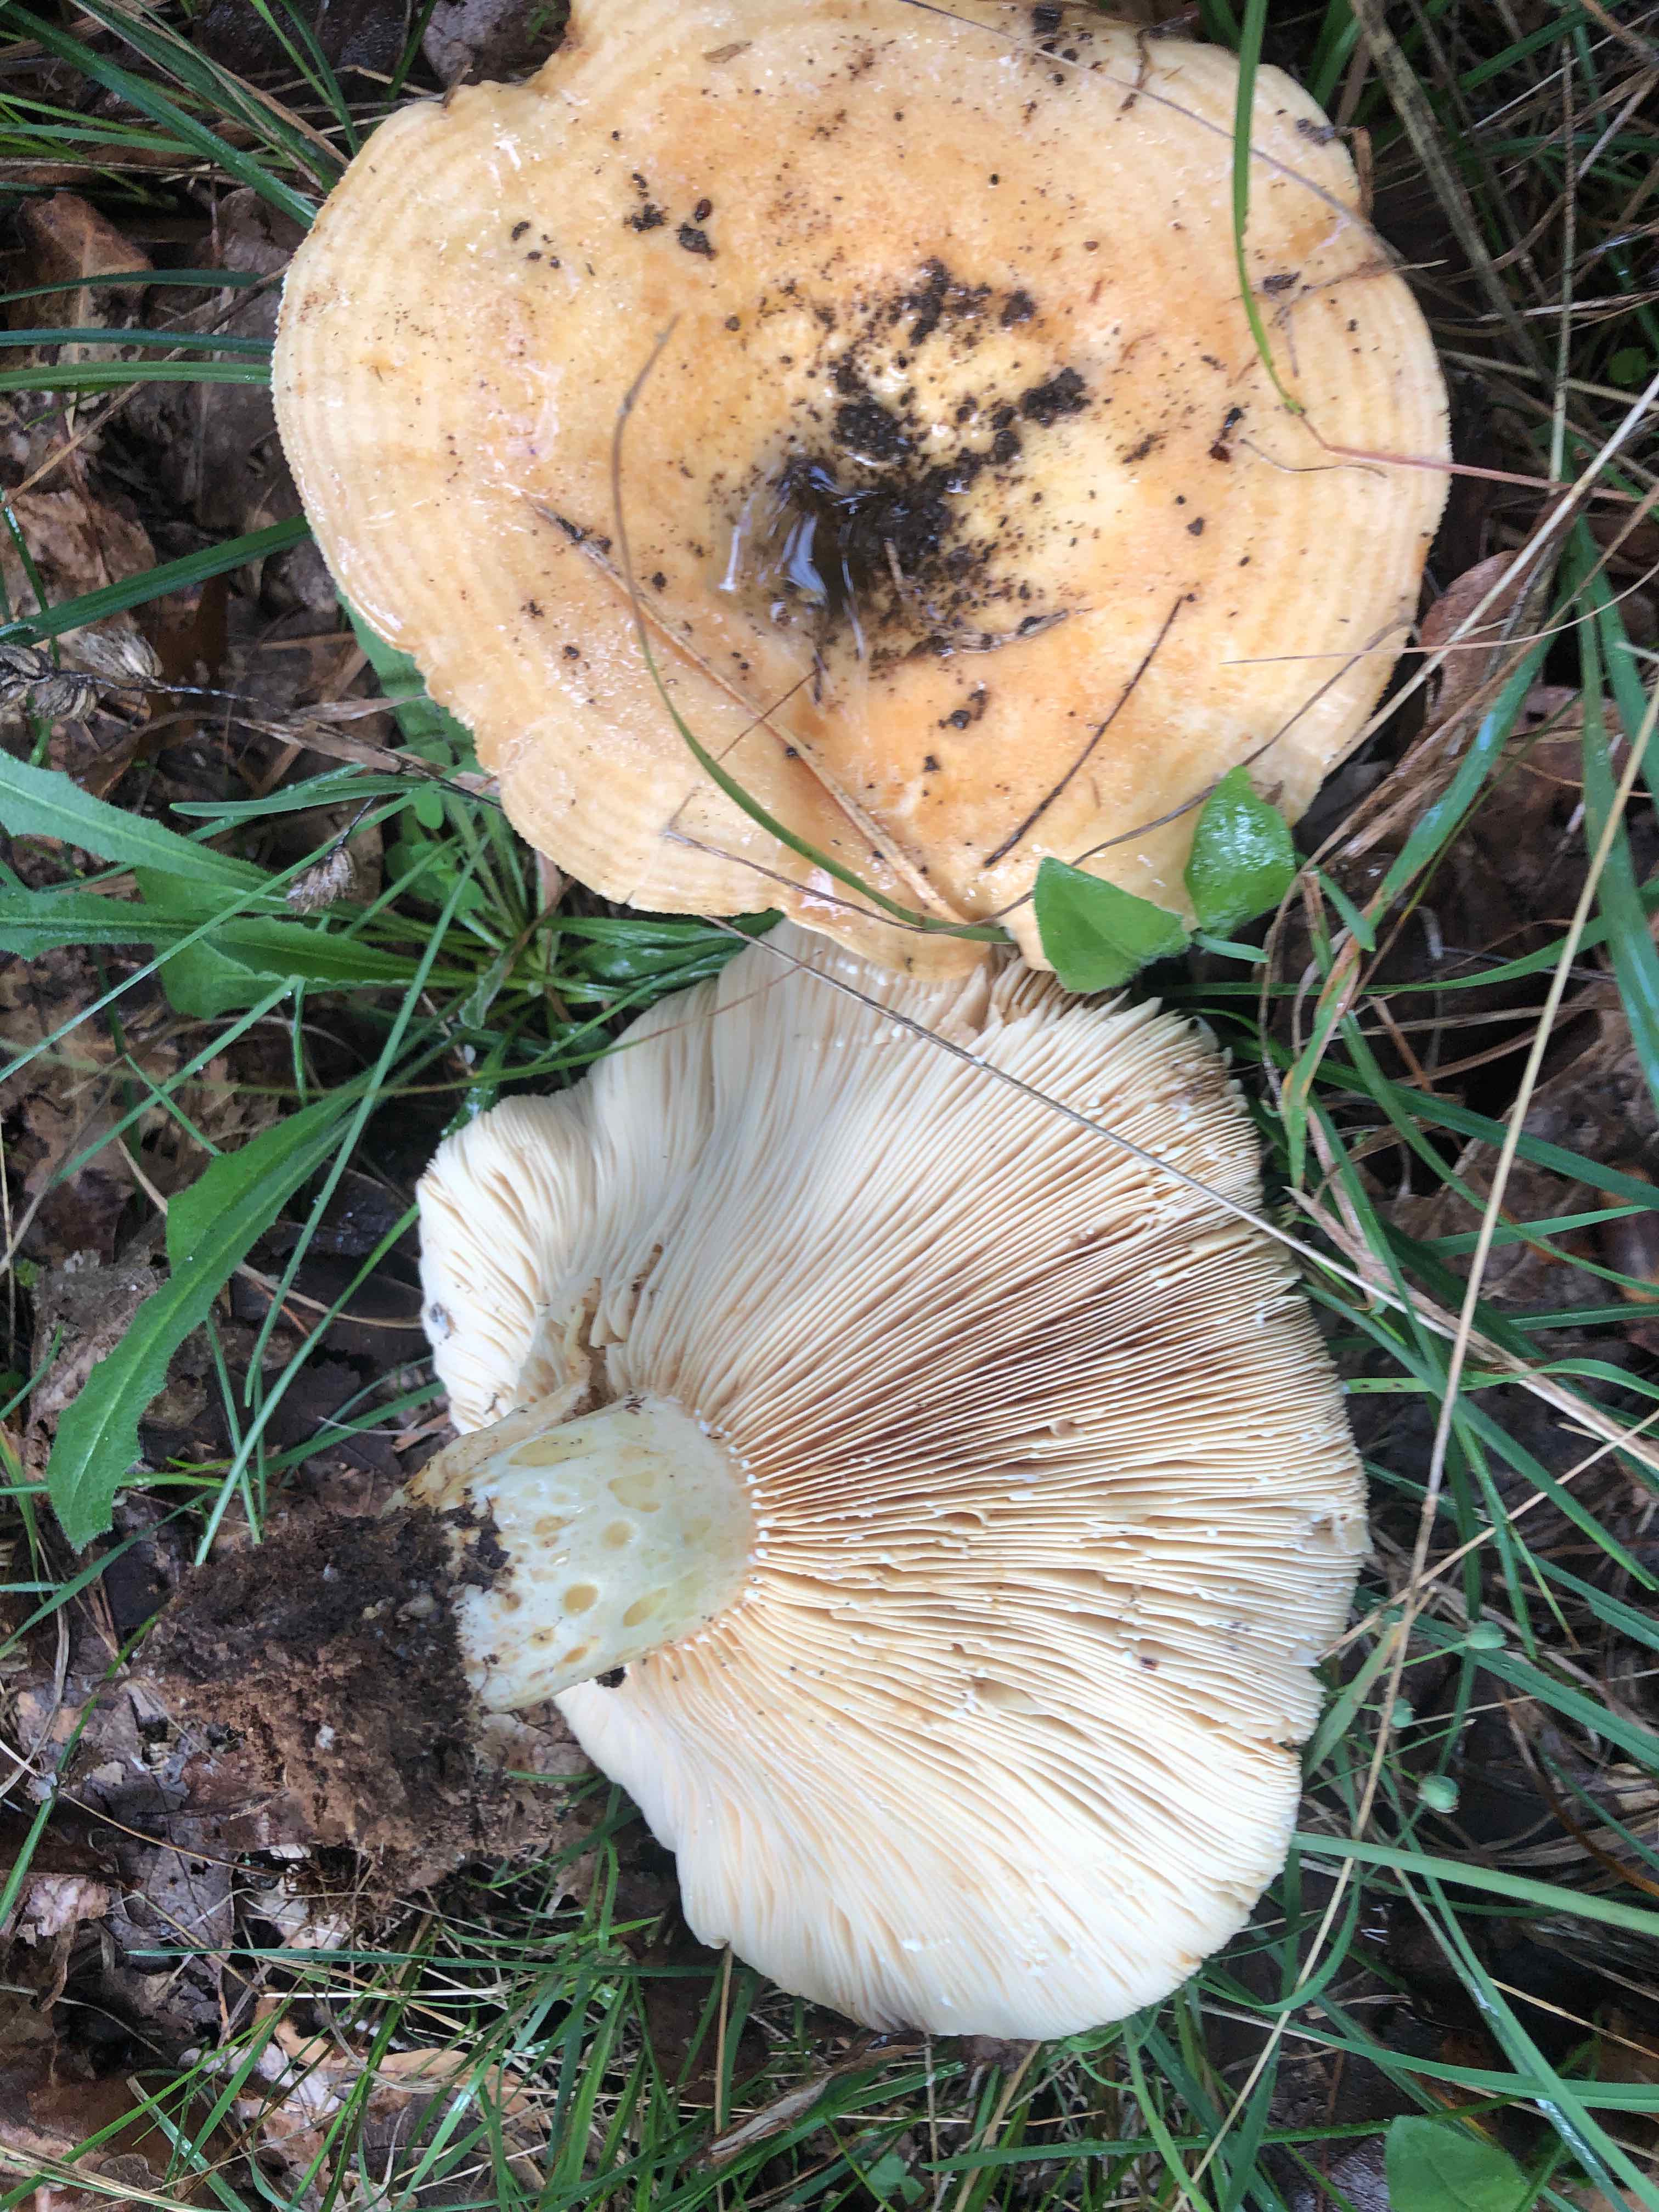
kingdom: Fungi
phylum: Basidiomycota
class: Agaricomycetes
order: Russulales
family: Russulaceae
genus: Lactarius
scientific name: Lactarius zonarius
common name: zoneret mælkehat
